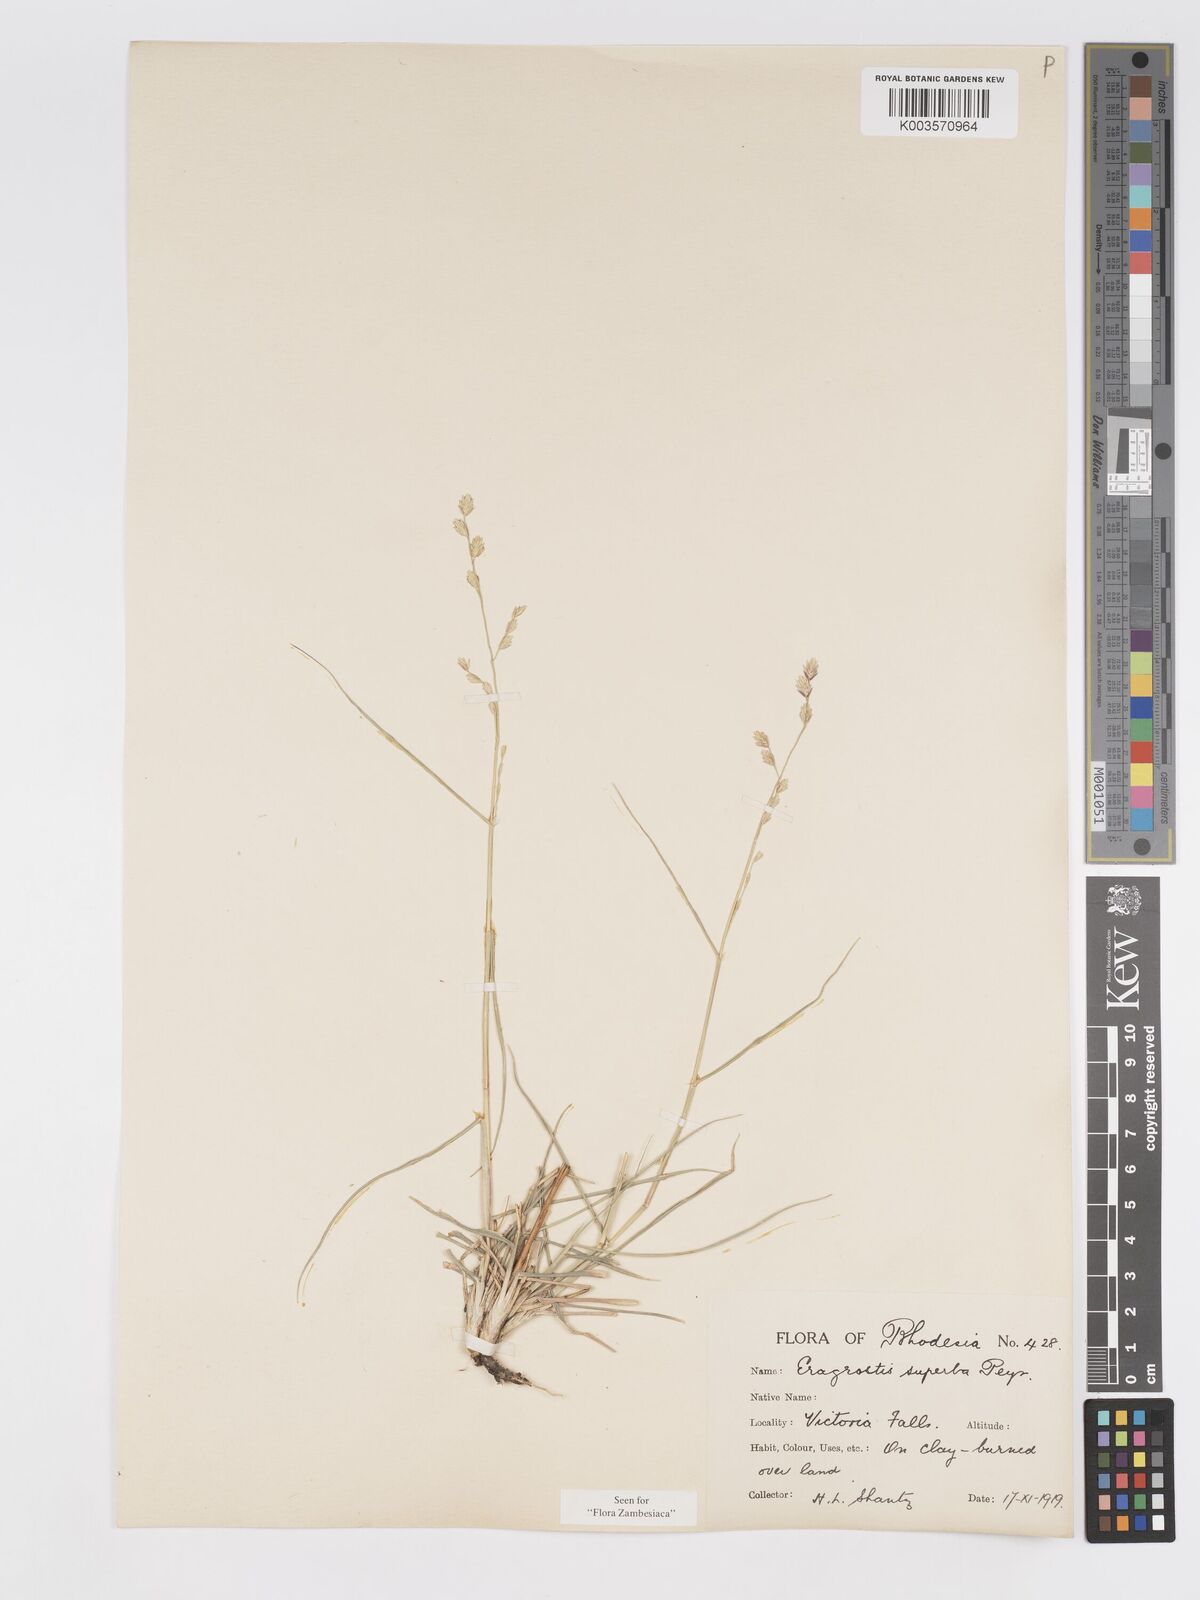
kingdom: Plantae
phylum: Tracheophyta
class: Liliopsida
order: Poales
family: Poaceae
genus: Eragrostis
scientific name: Eragrostis superba
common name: Wilman lovegrass
